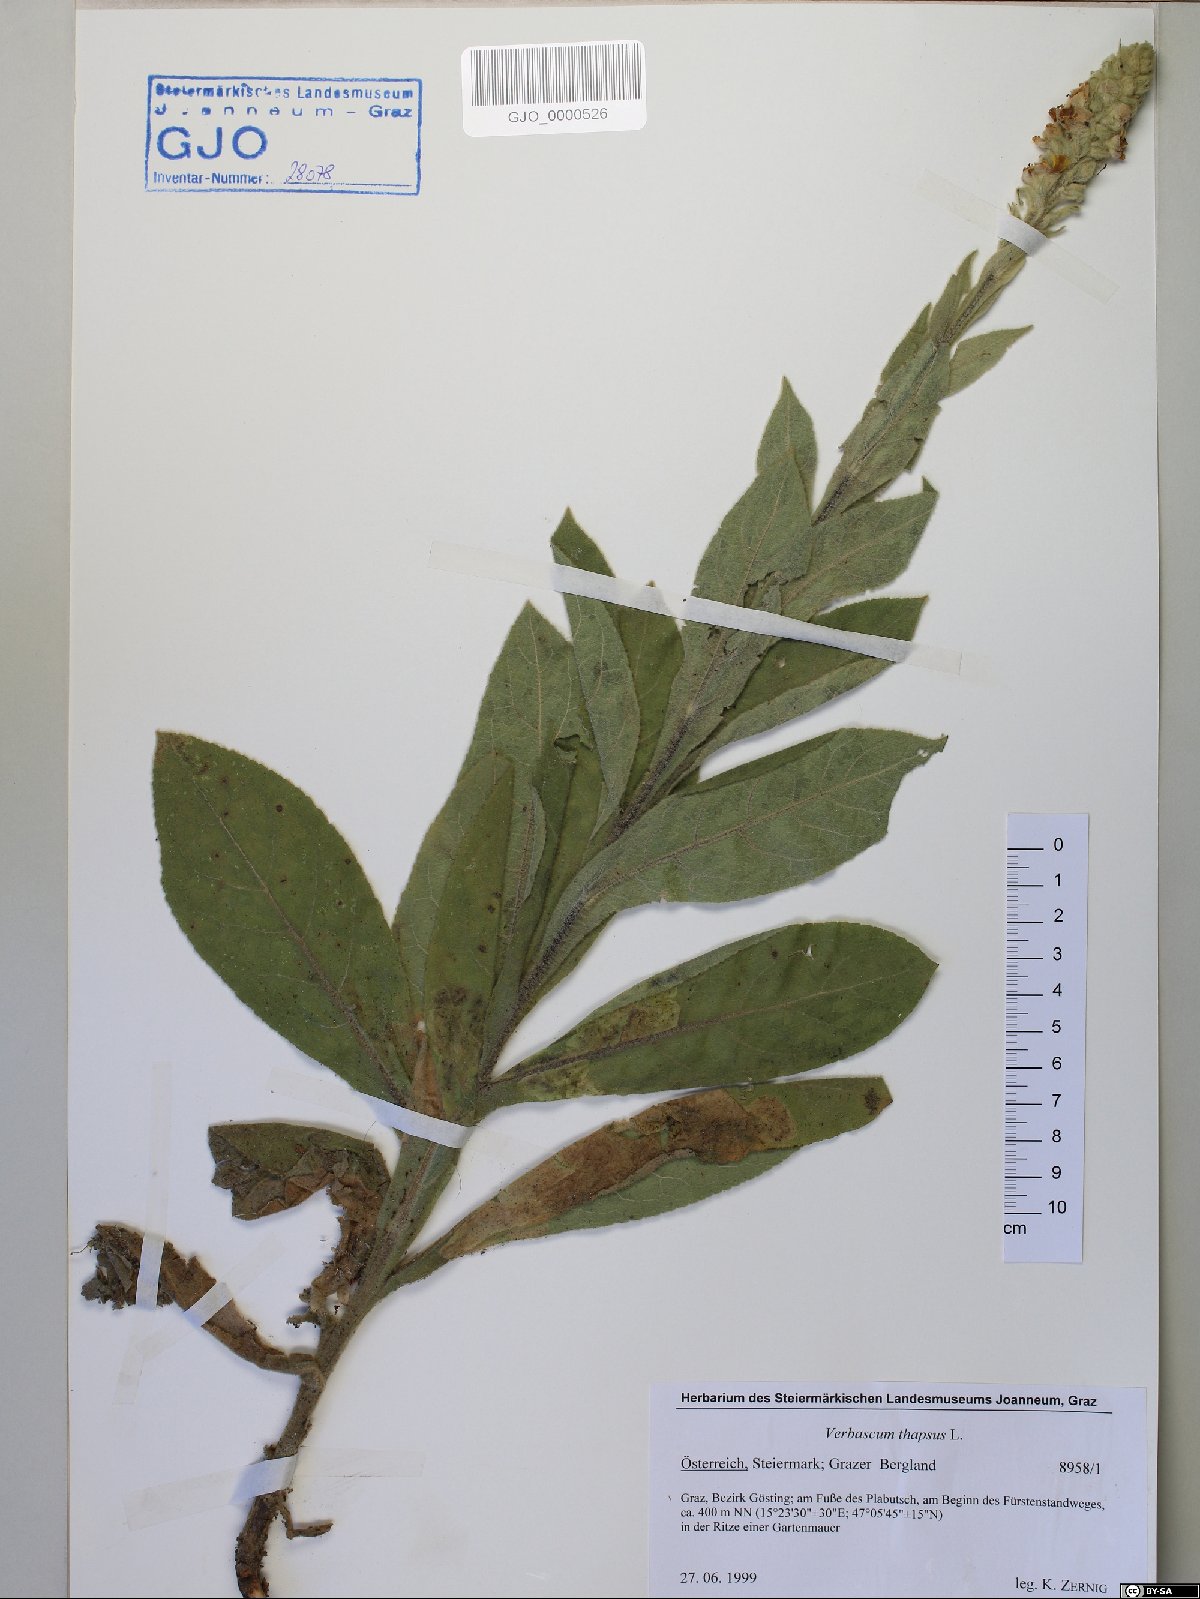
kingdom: Plantae
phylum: Tracheophyta
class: Magnoliopsida
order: Lamiales
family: Scrophulariaceae
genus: Verbascum
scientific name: Verbascum thapsus
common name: Common mullein
